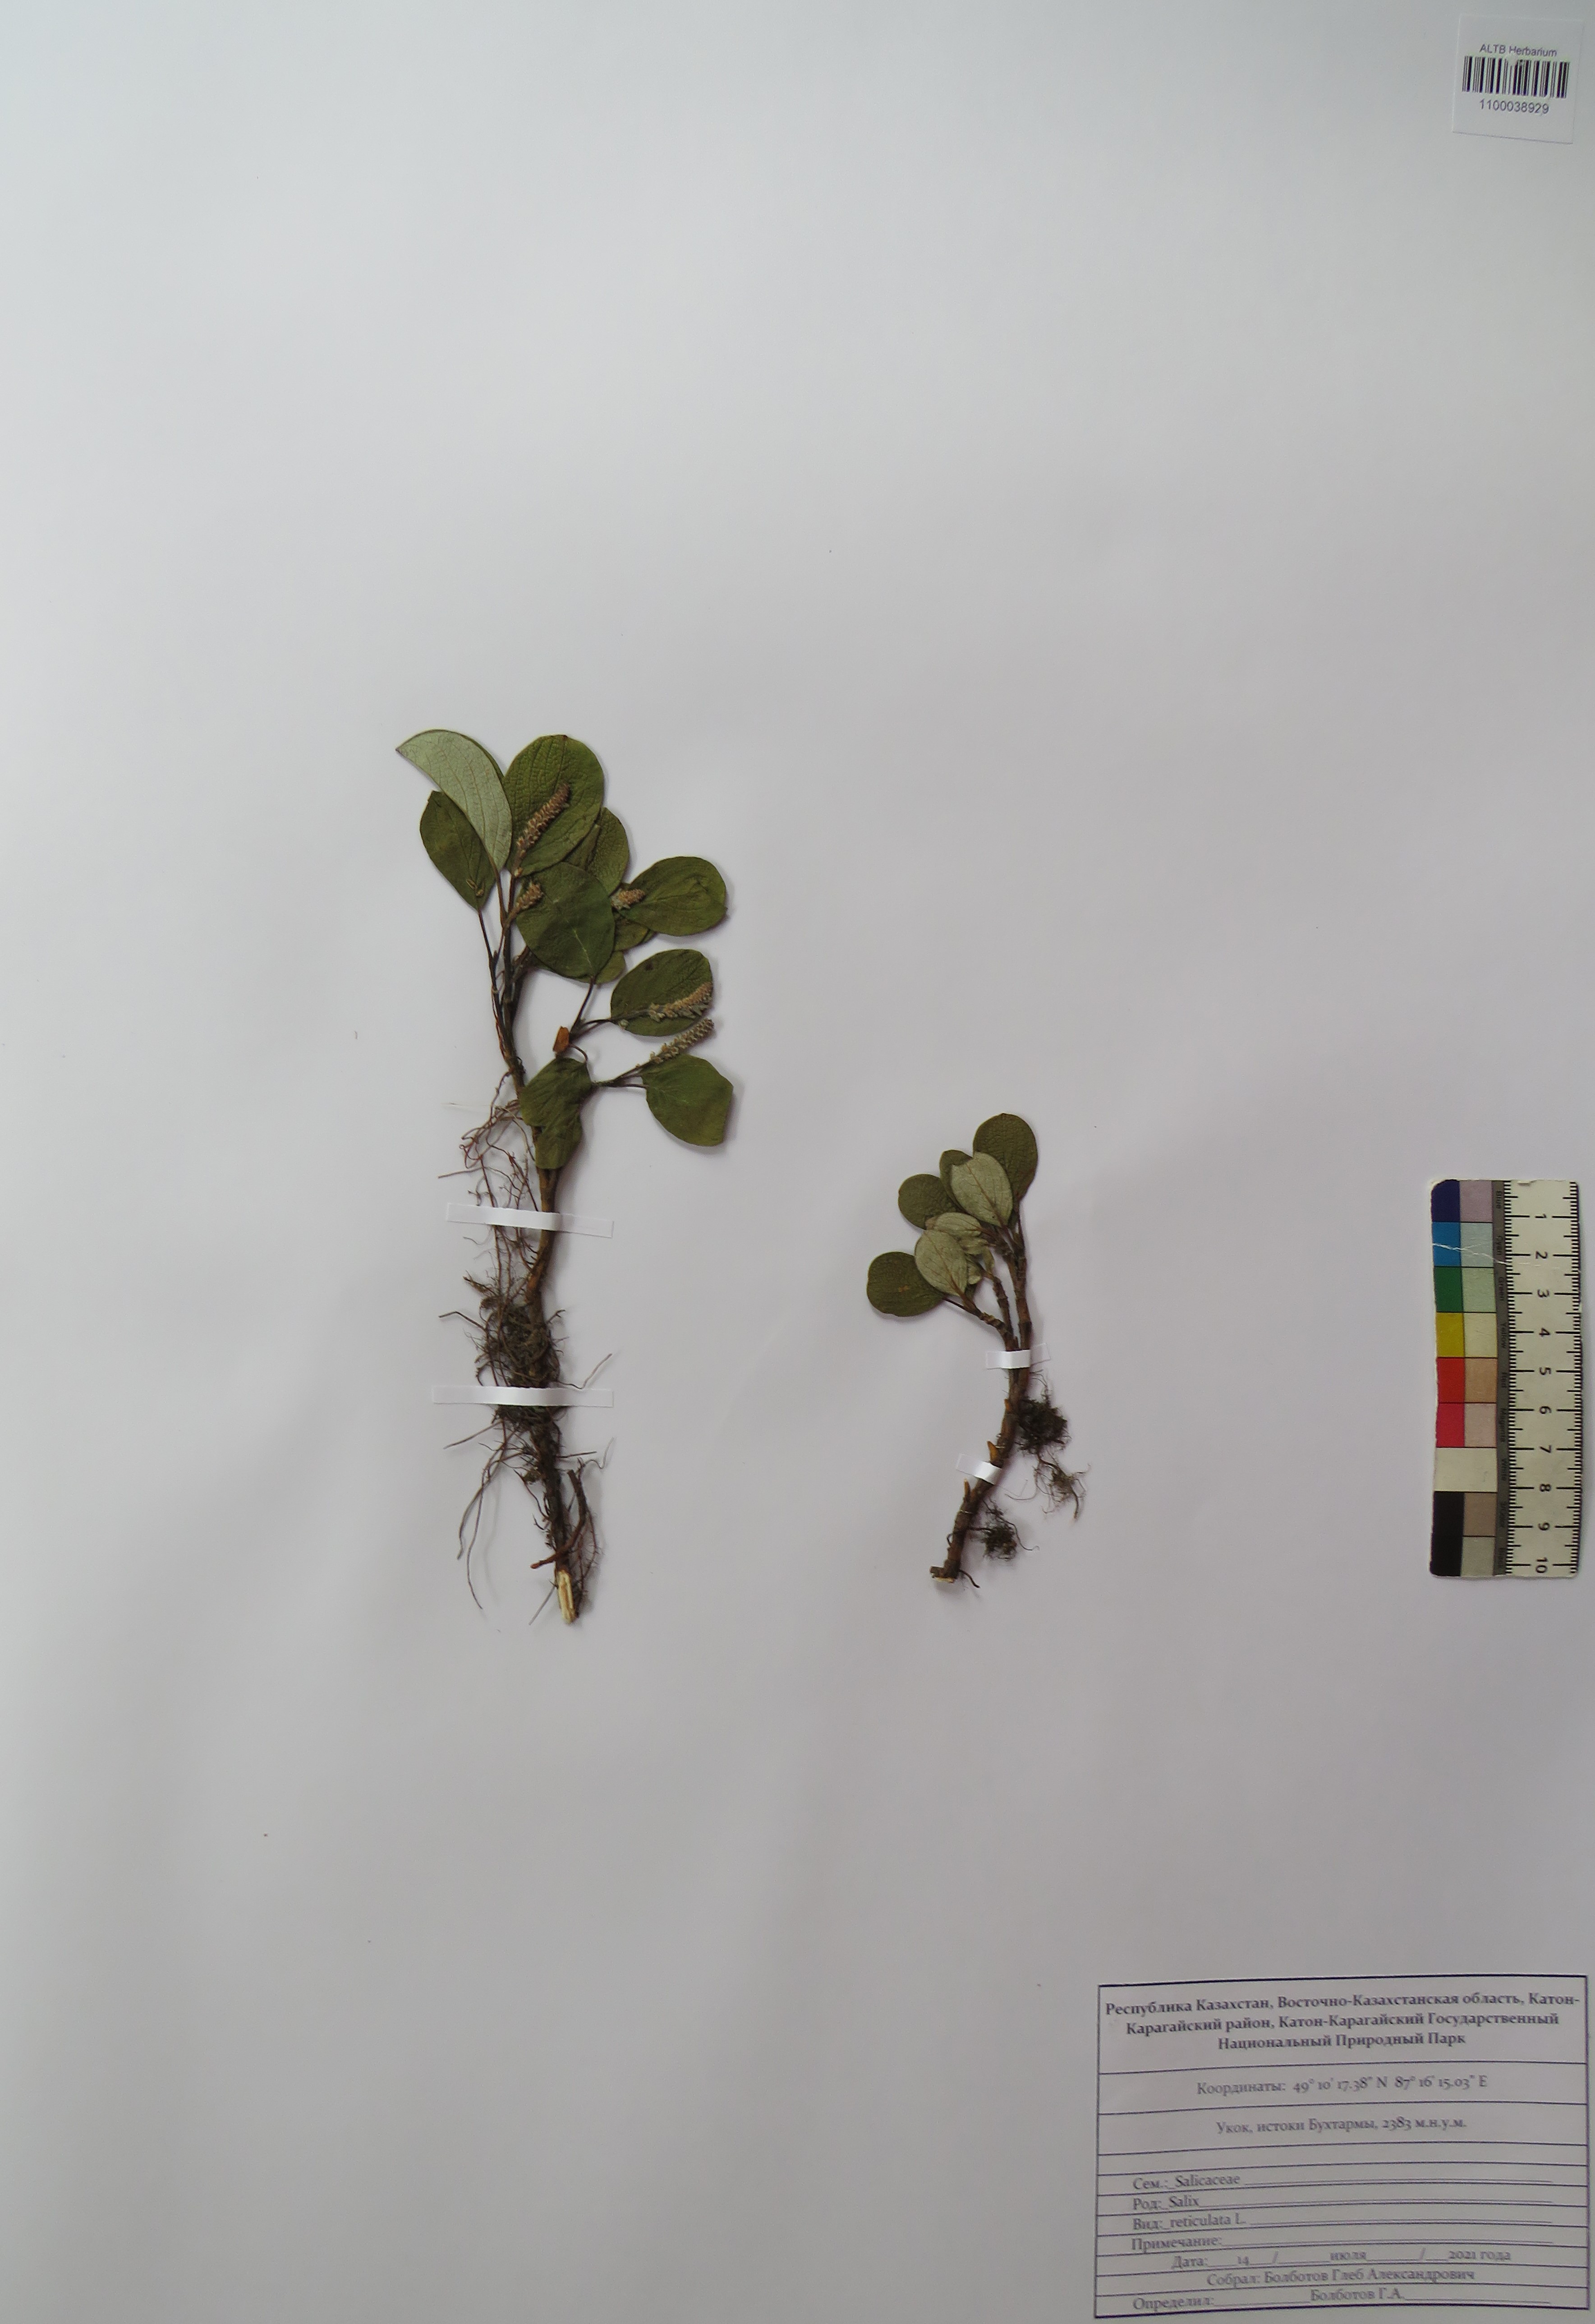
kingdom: Plantae
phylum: Tracheophyta
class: Magnoliopsida
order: Malpighiales
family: Salicaceae
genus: Salix
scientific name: Salix reticulata
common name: Net-leaved willow
